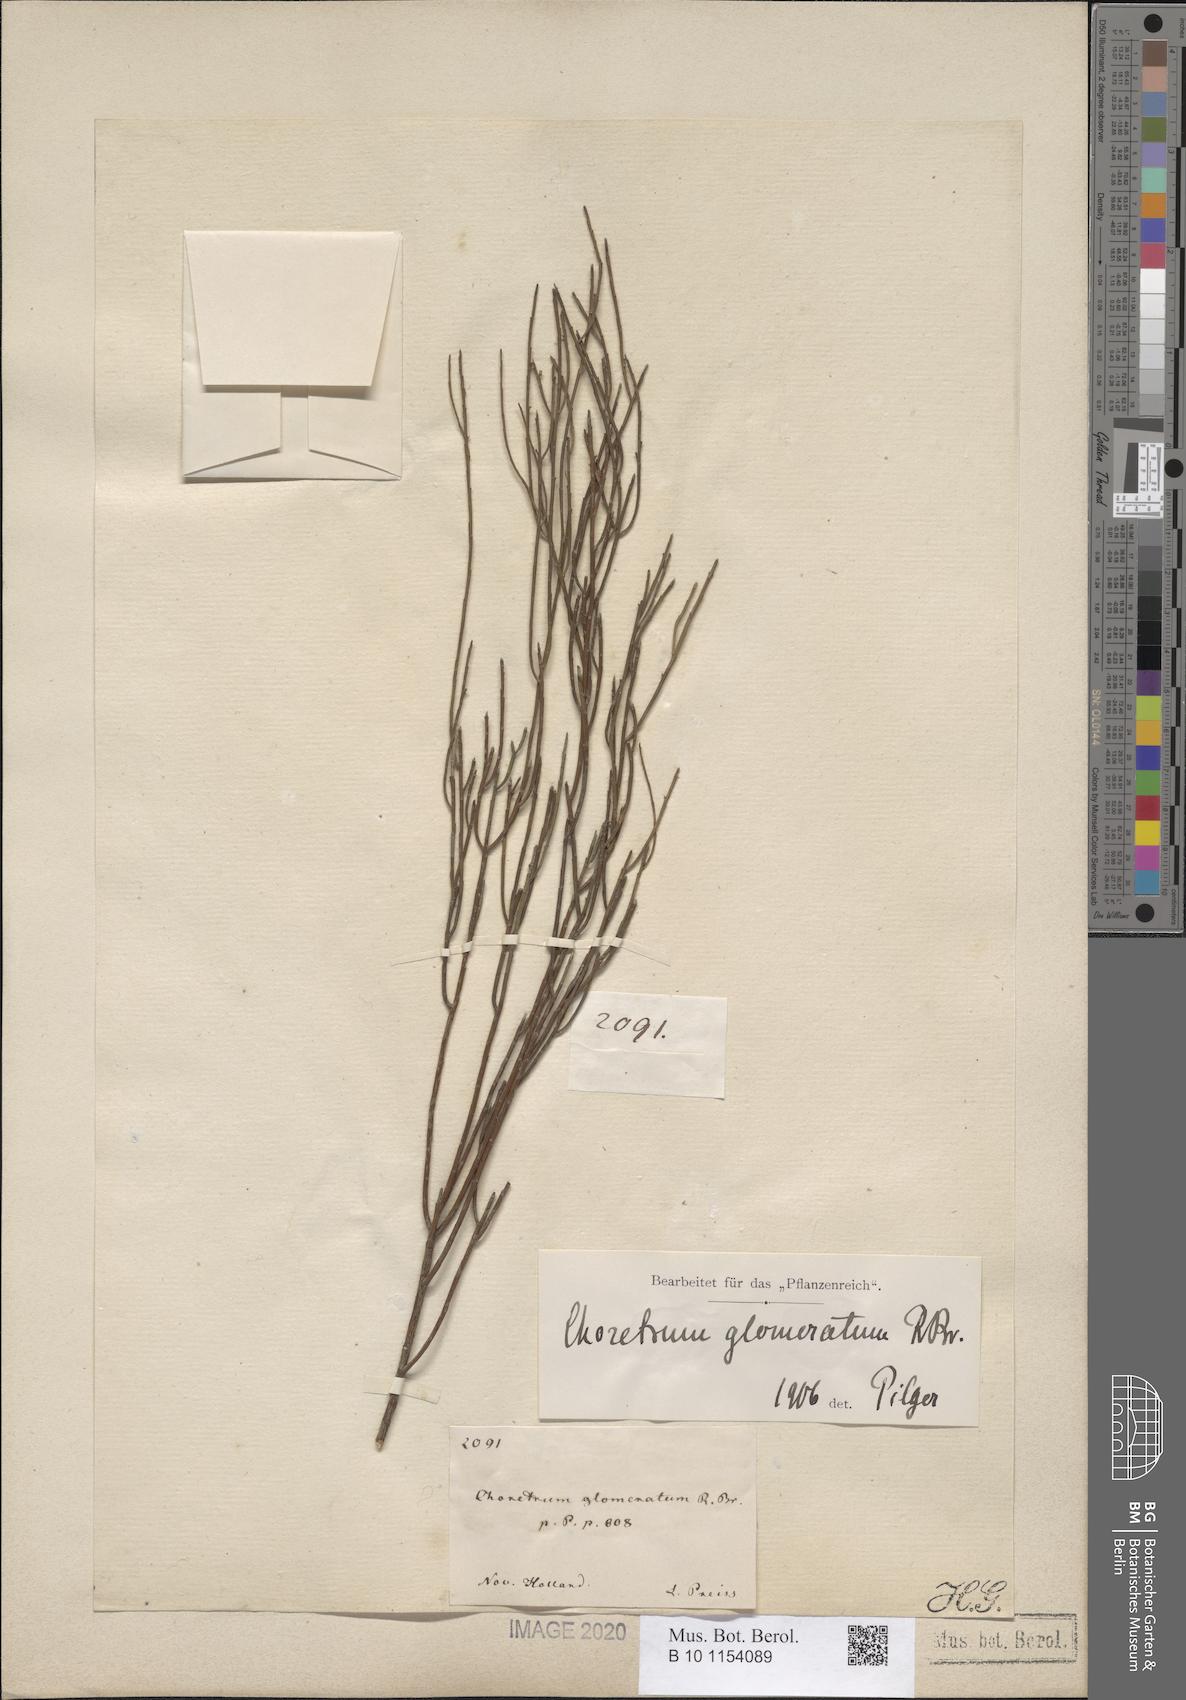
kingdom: Plantae
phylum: Tracheophyta
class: Magnoliopsida
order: Santalales
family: Amphorogynaceae
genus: Choretrum
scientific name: Choretrum glomeratum
